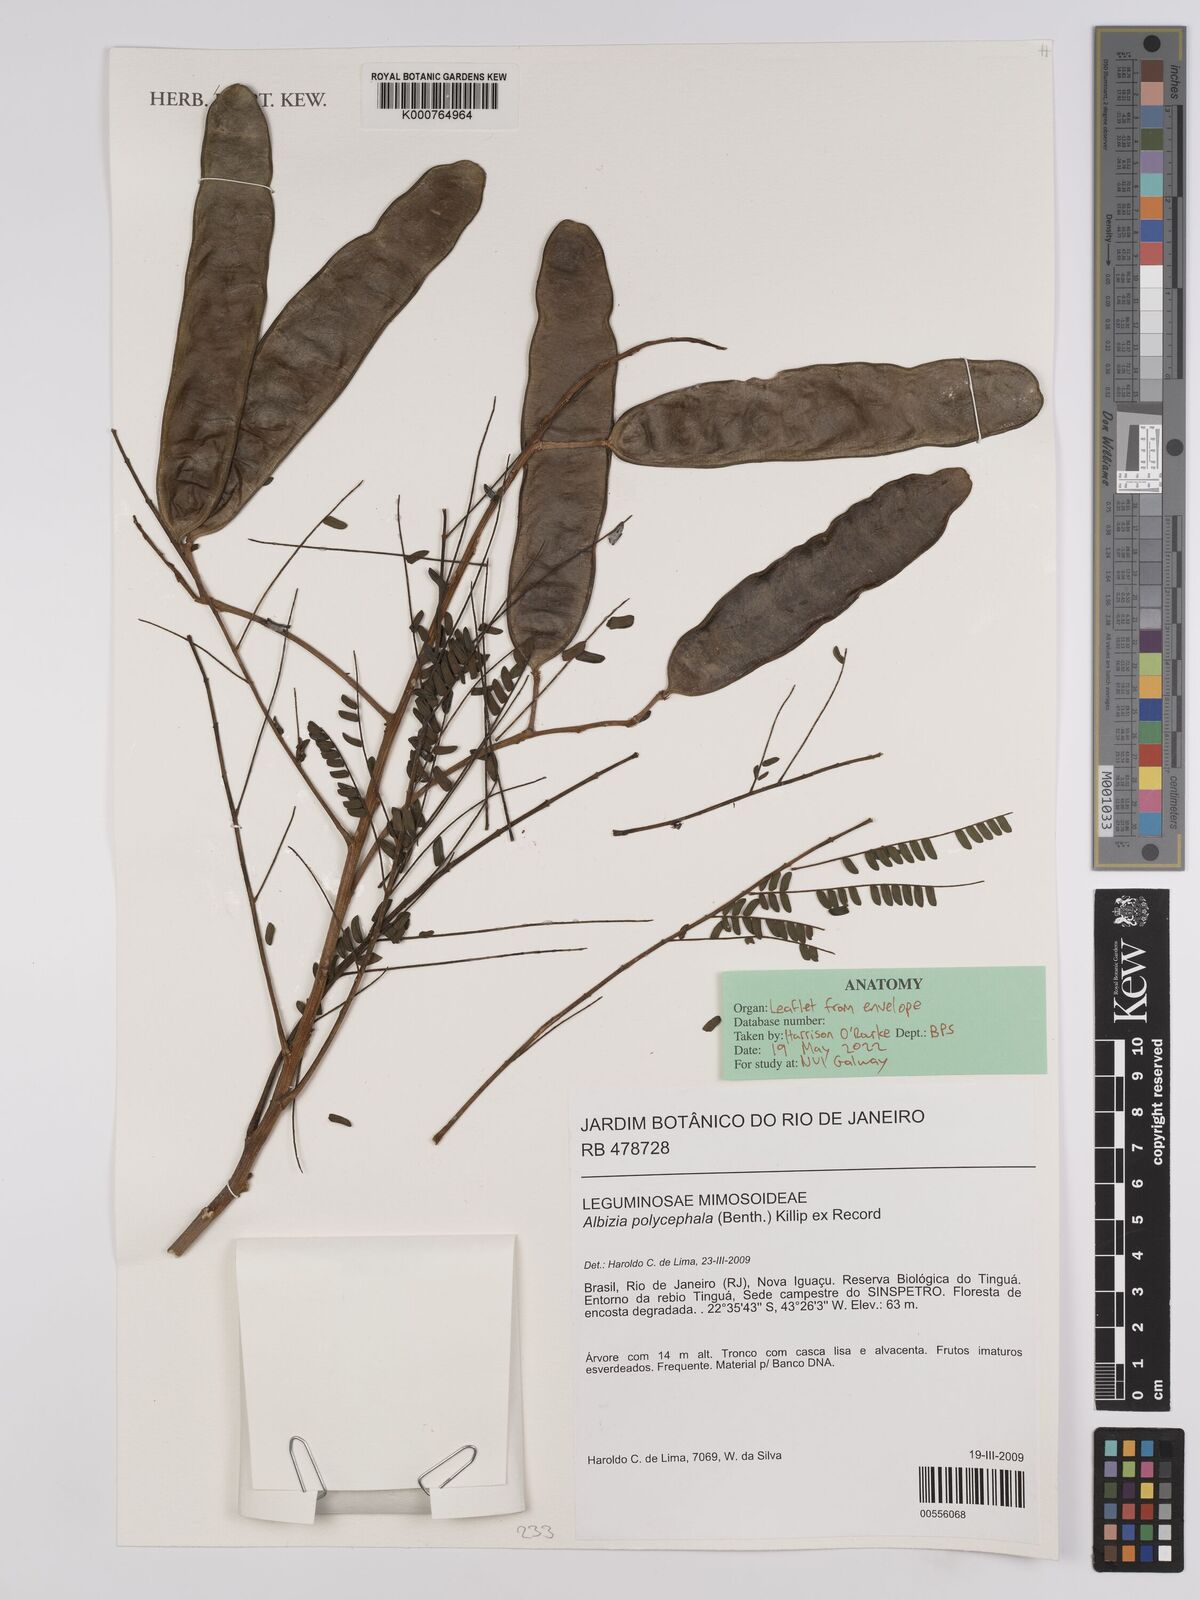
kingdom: Plantae
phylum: Tracheophyta
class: Magnoliopsida
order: Fabales
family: Fabaceae
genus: Albizia
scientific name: Albizia
